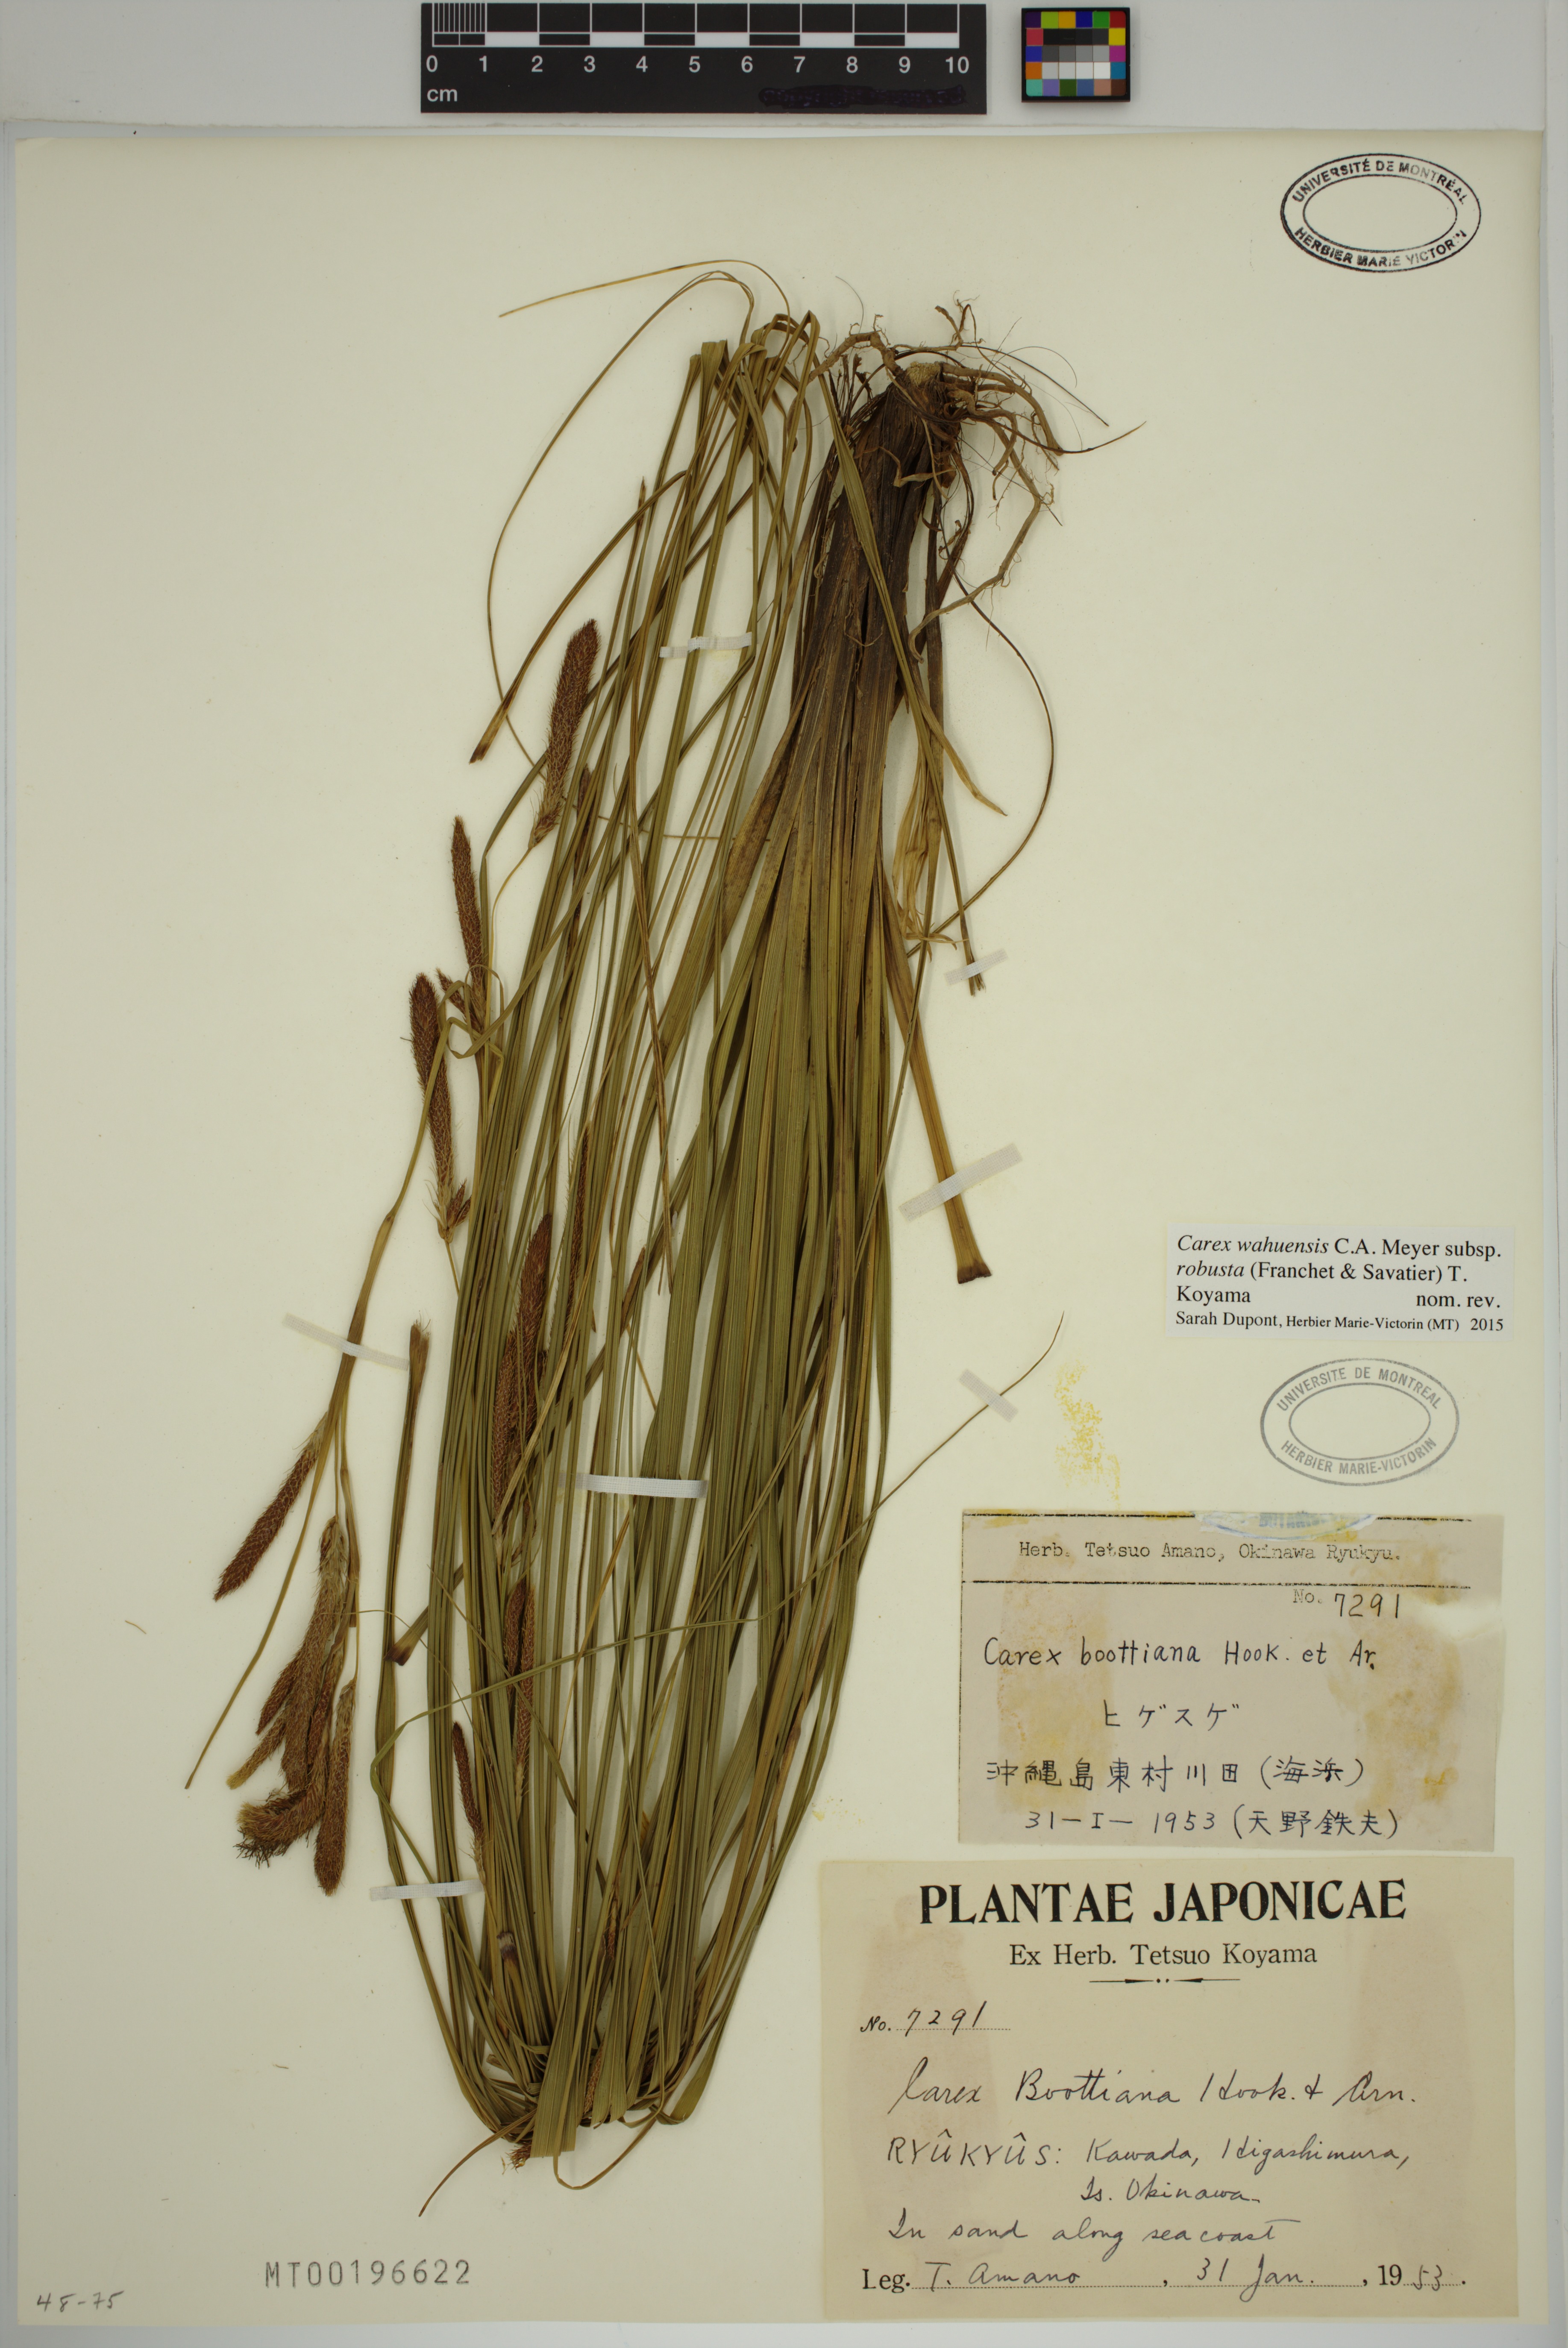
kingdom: Plantae
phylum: Tracheophyta
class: Liliopsida
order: Poales
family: Cyperaceae
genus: Carex
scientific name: Carex wahuensis
